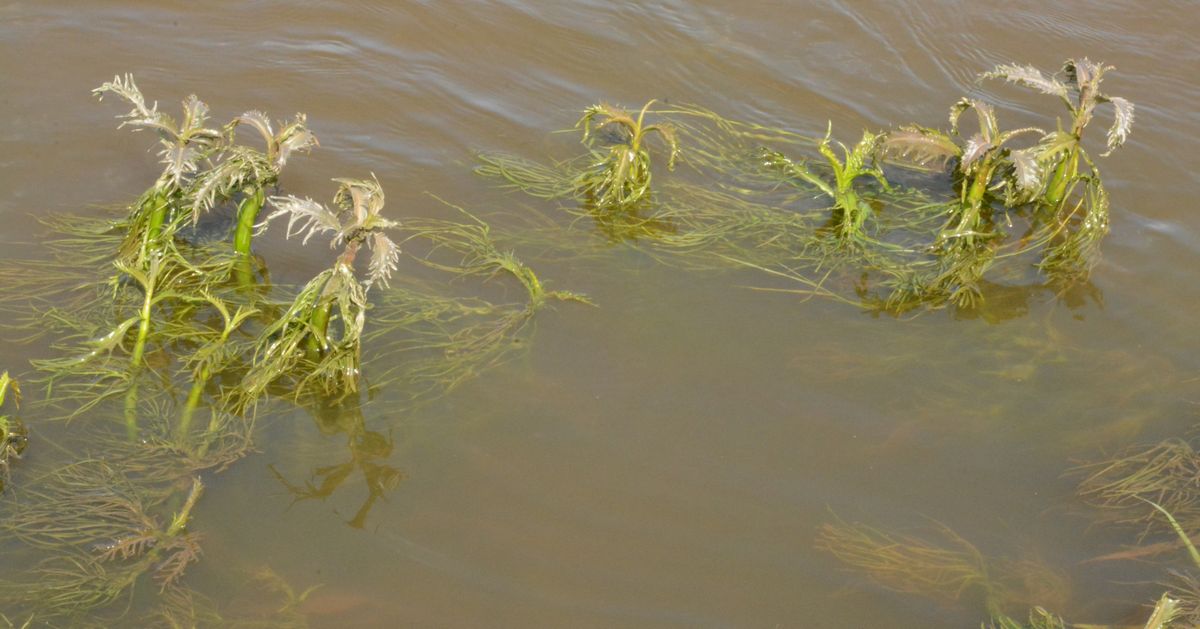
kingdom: Plantae
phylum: Tracheophyta
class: Magnoliopsida
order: Brassicales
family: Brassicaceae
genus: Rorippa
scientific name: Rorippa amphibia
